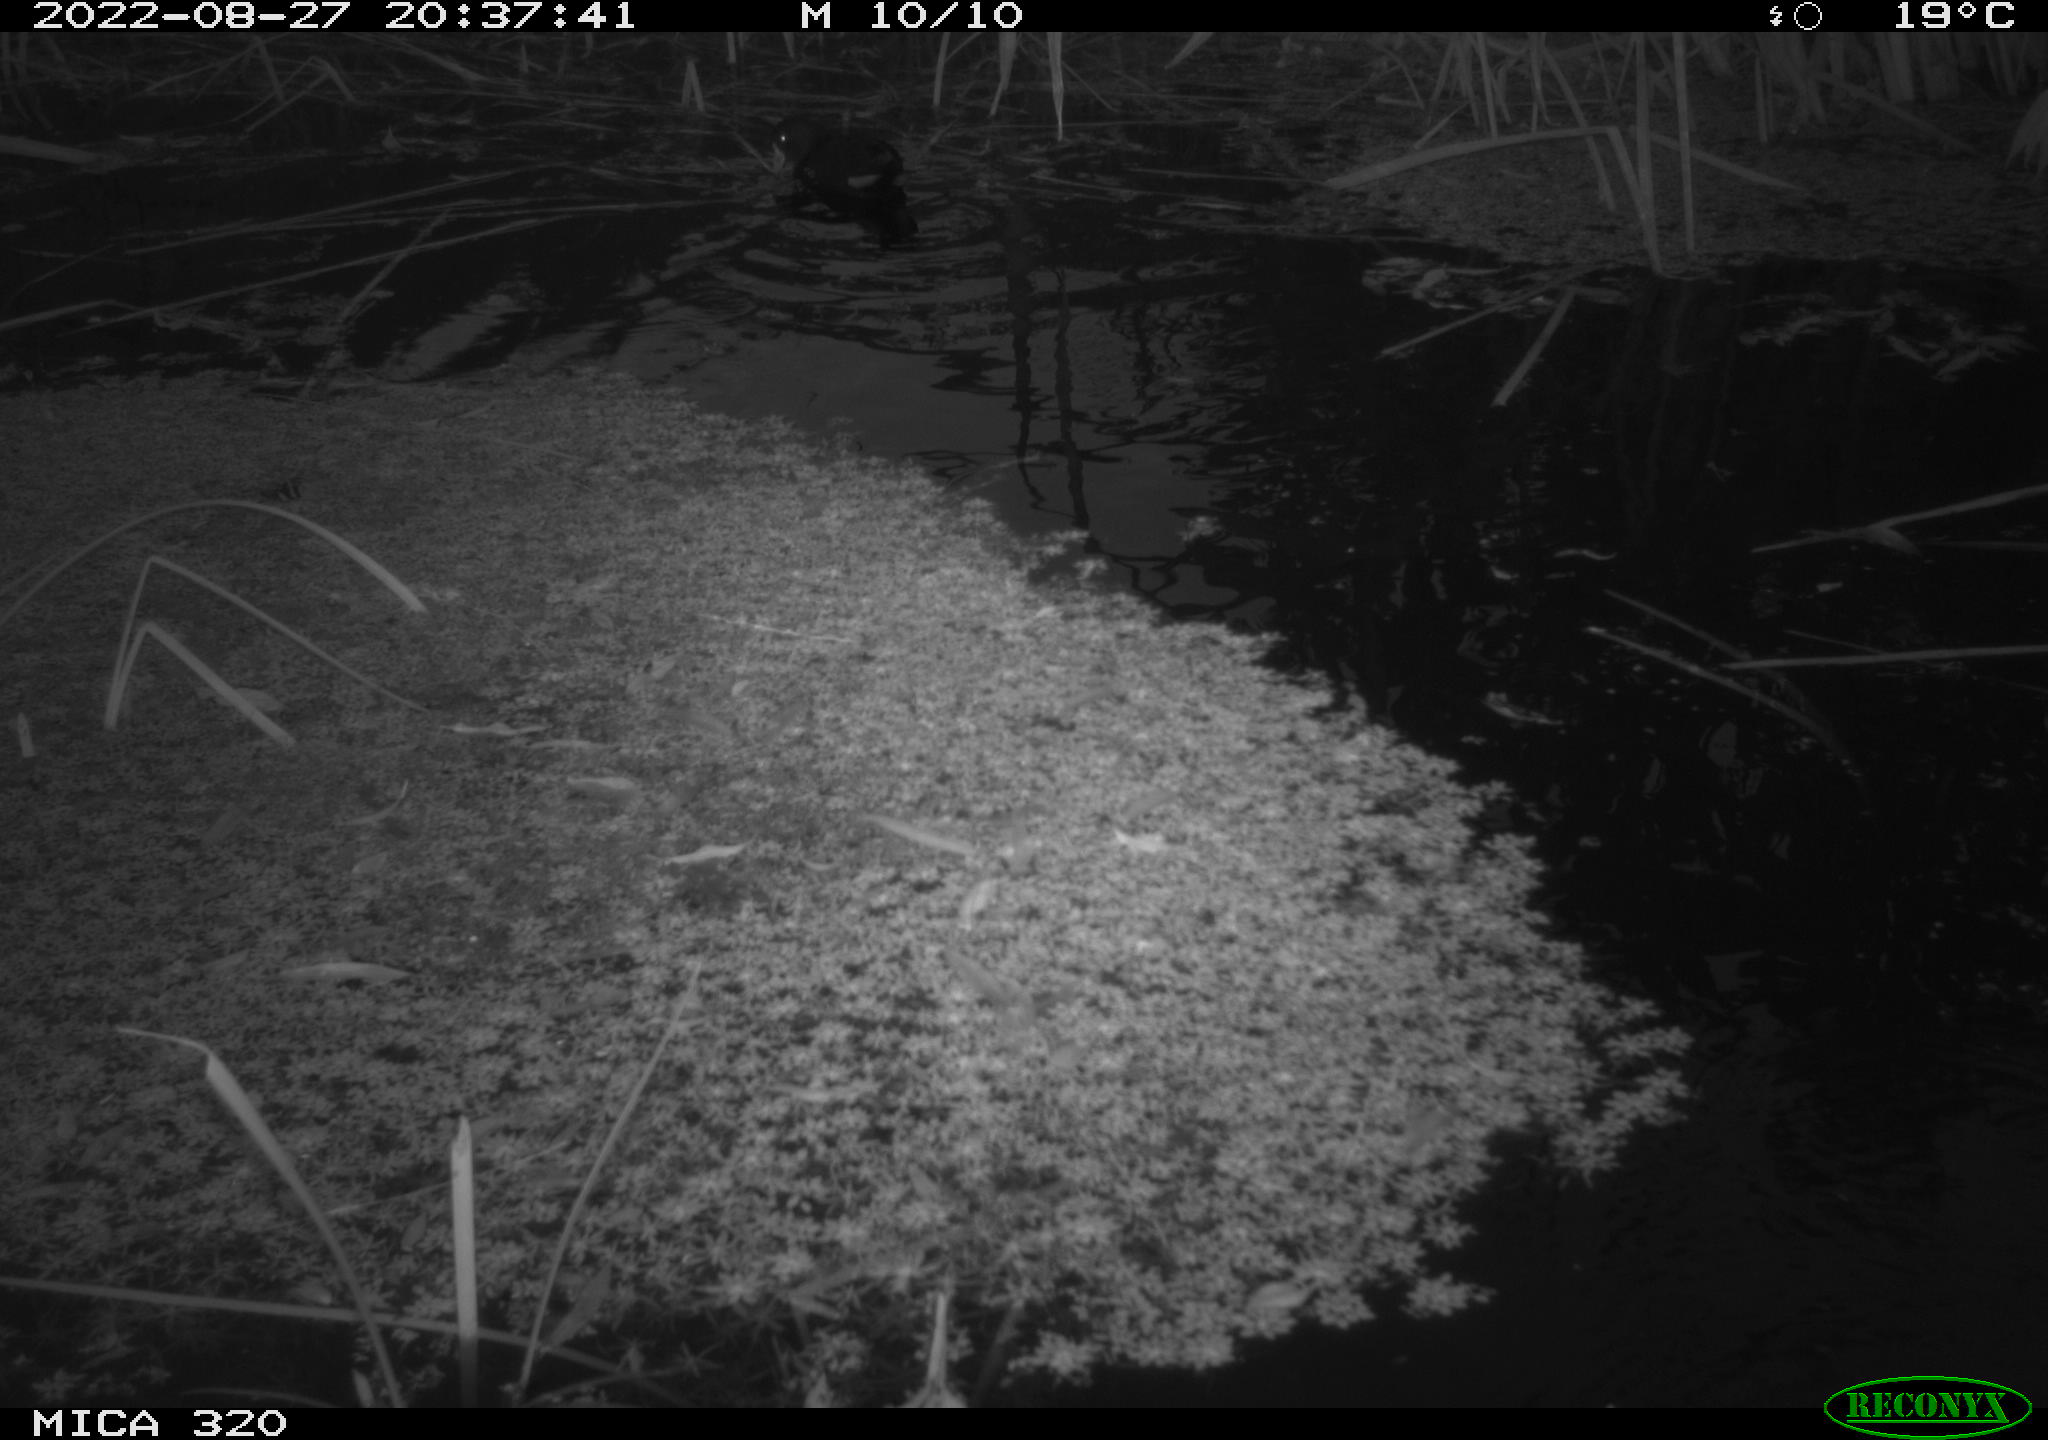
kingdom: Animalia
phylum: Chordata
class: Aves
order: Gruiformes
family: Rallidae
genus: Gallinula
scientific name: Gallinula chloropus
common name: Common moorhen
